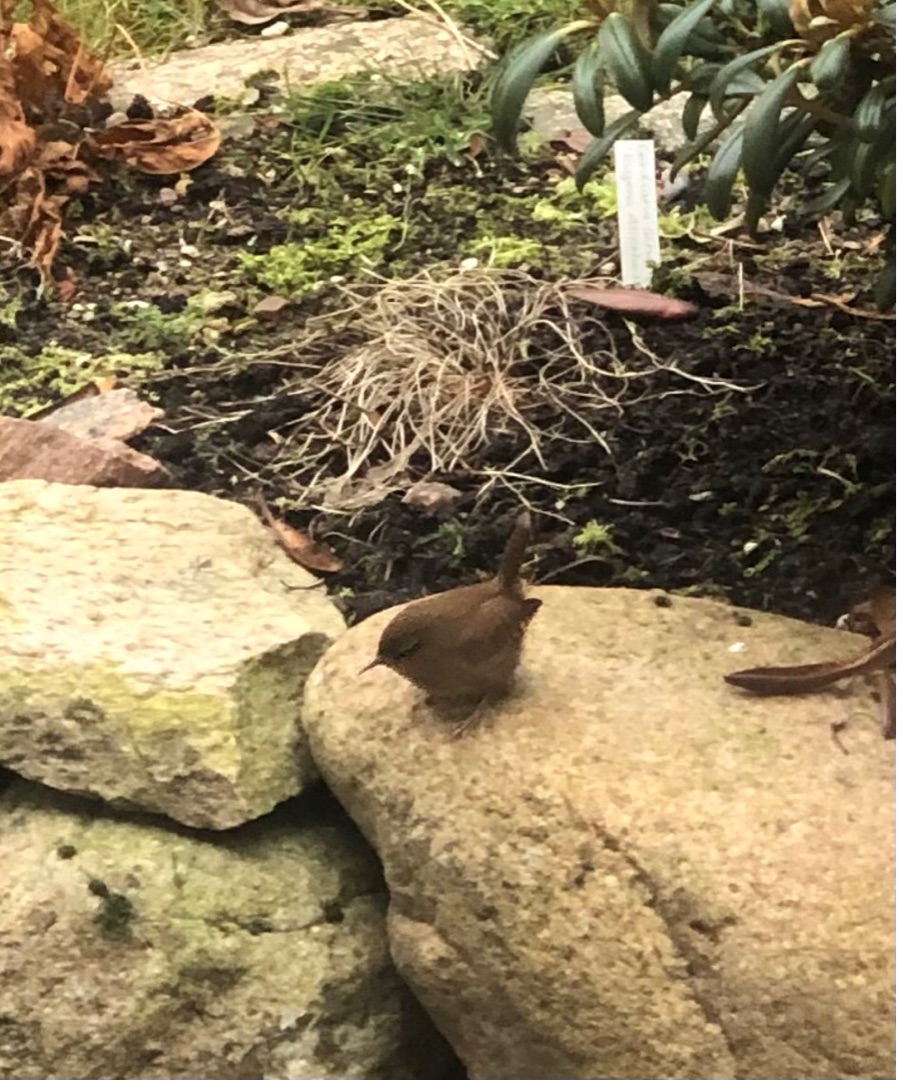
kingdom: Animalia
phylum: Chordata
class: Aves
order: Passeriformes
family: Troglodytidae
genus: Troglodytes
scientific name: Troglodytes troglodytes
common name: Gærdesmutte
